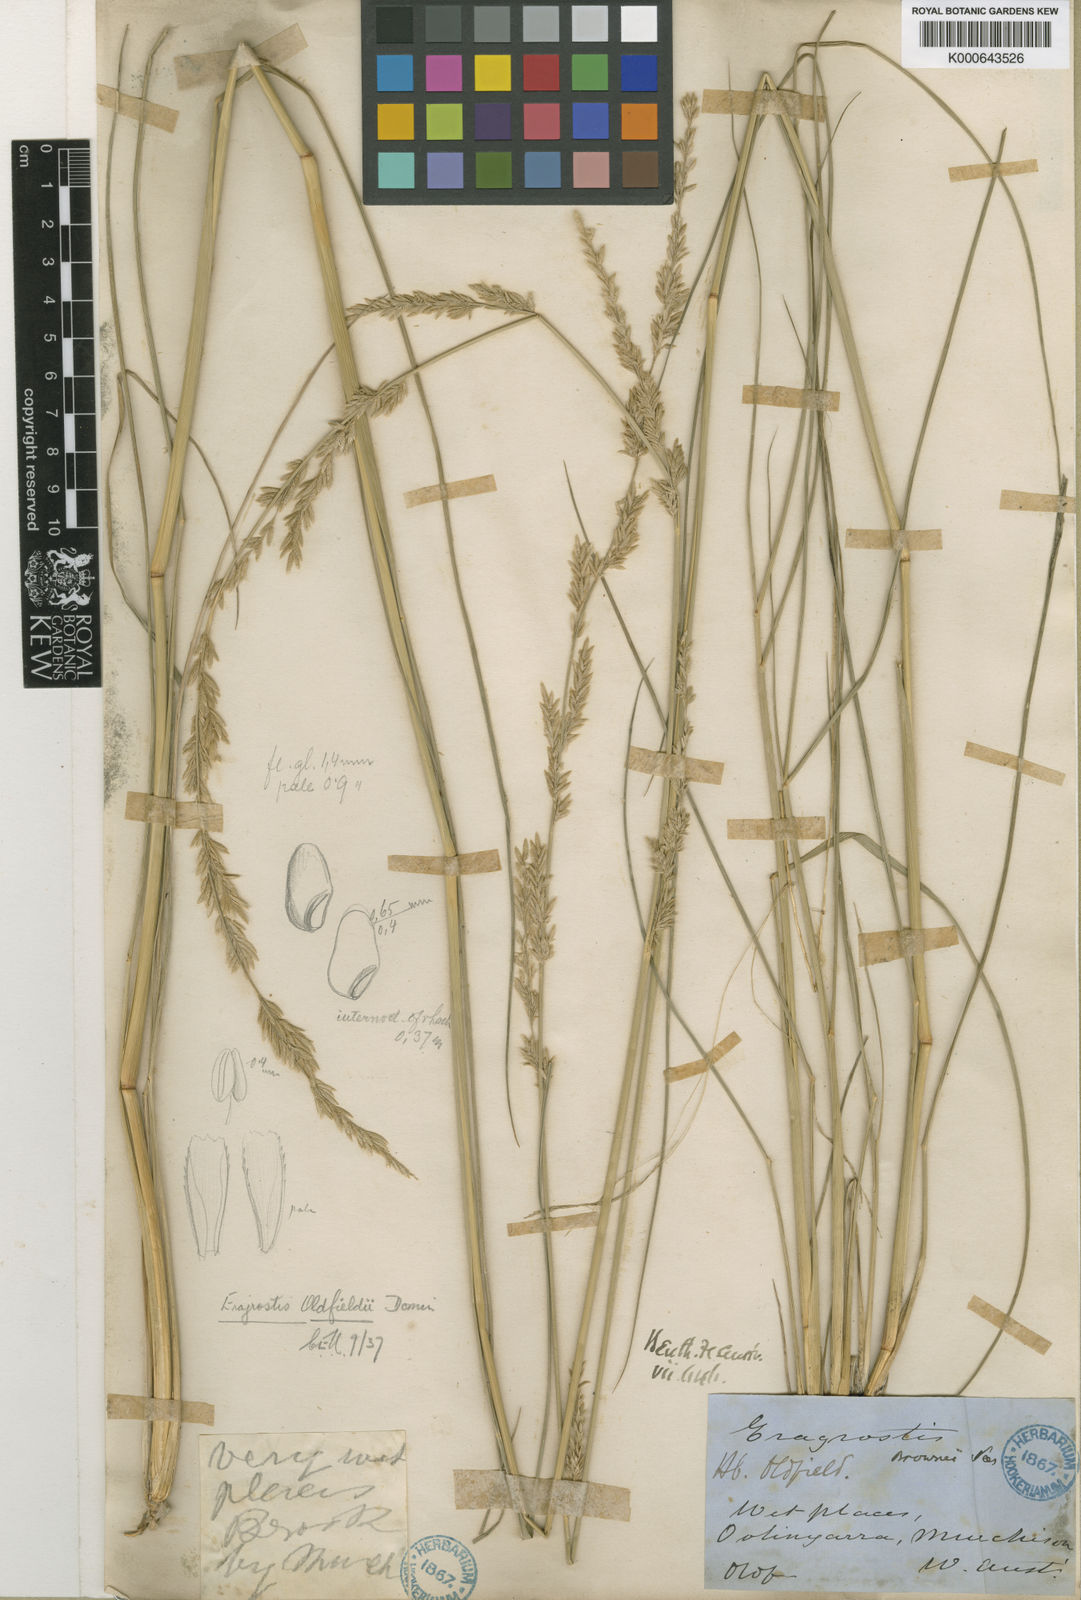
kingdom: Plantae
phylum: Tracheophyta
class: Liliopsida
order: Poales
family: Poaceae
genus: Eragrostis
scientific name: Eragrostis speciosa
